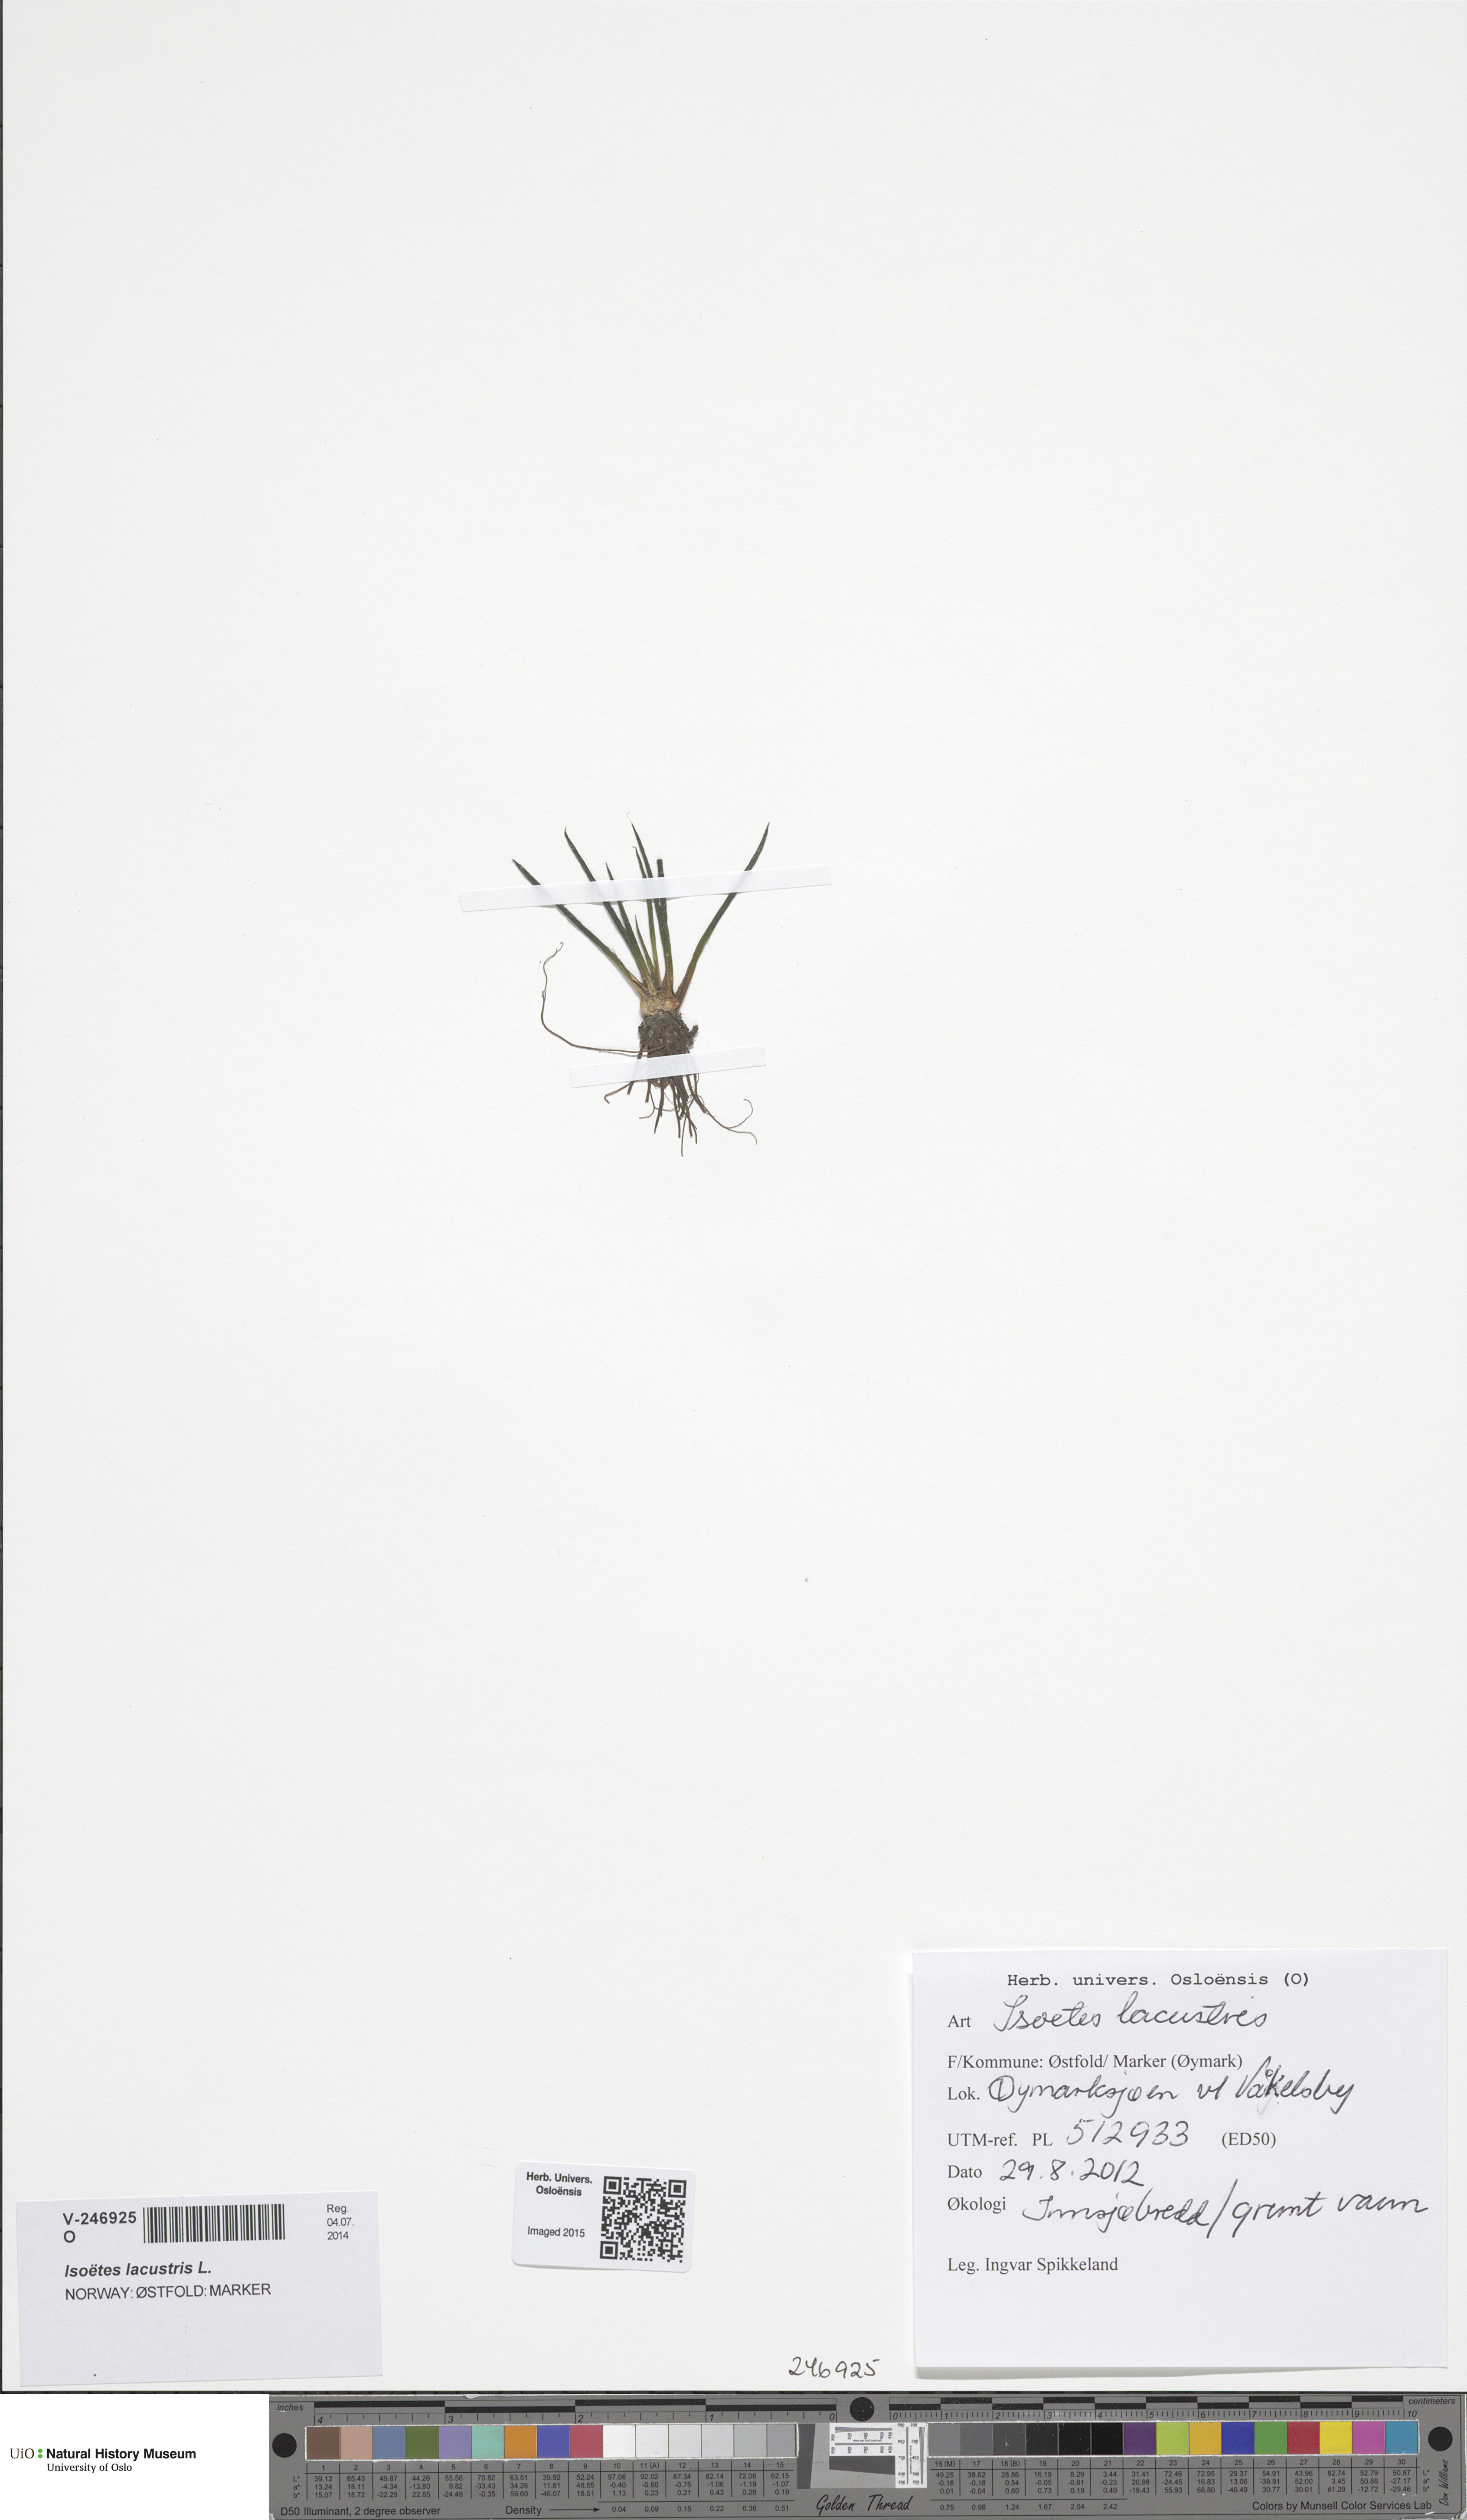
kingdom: Plantae
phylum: Tracheophyta
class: Lycopodiopsida
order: Isoetales
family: Isoetaceae
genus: Isoetes
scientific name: Isoetes lacustris
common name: Common quillwort
